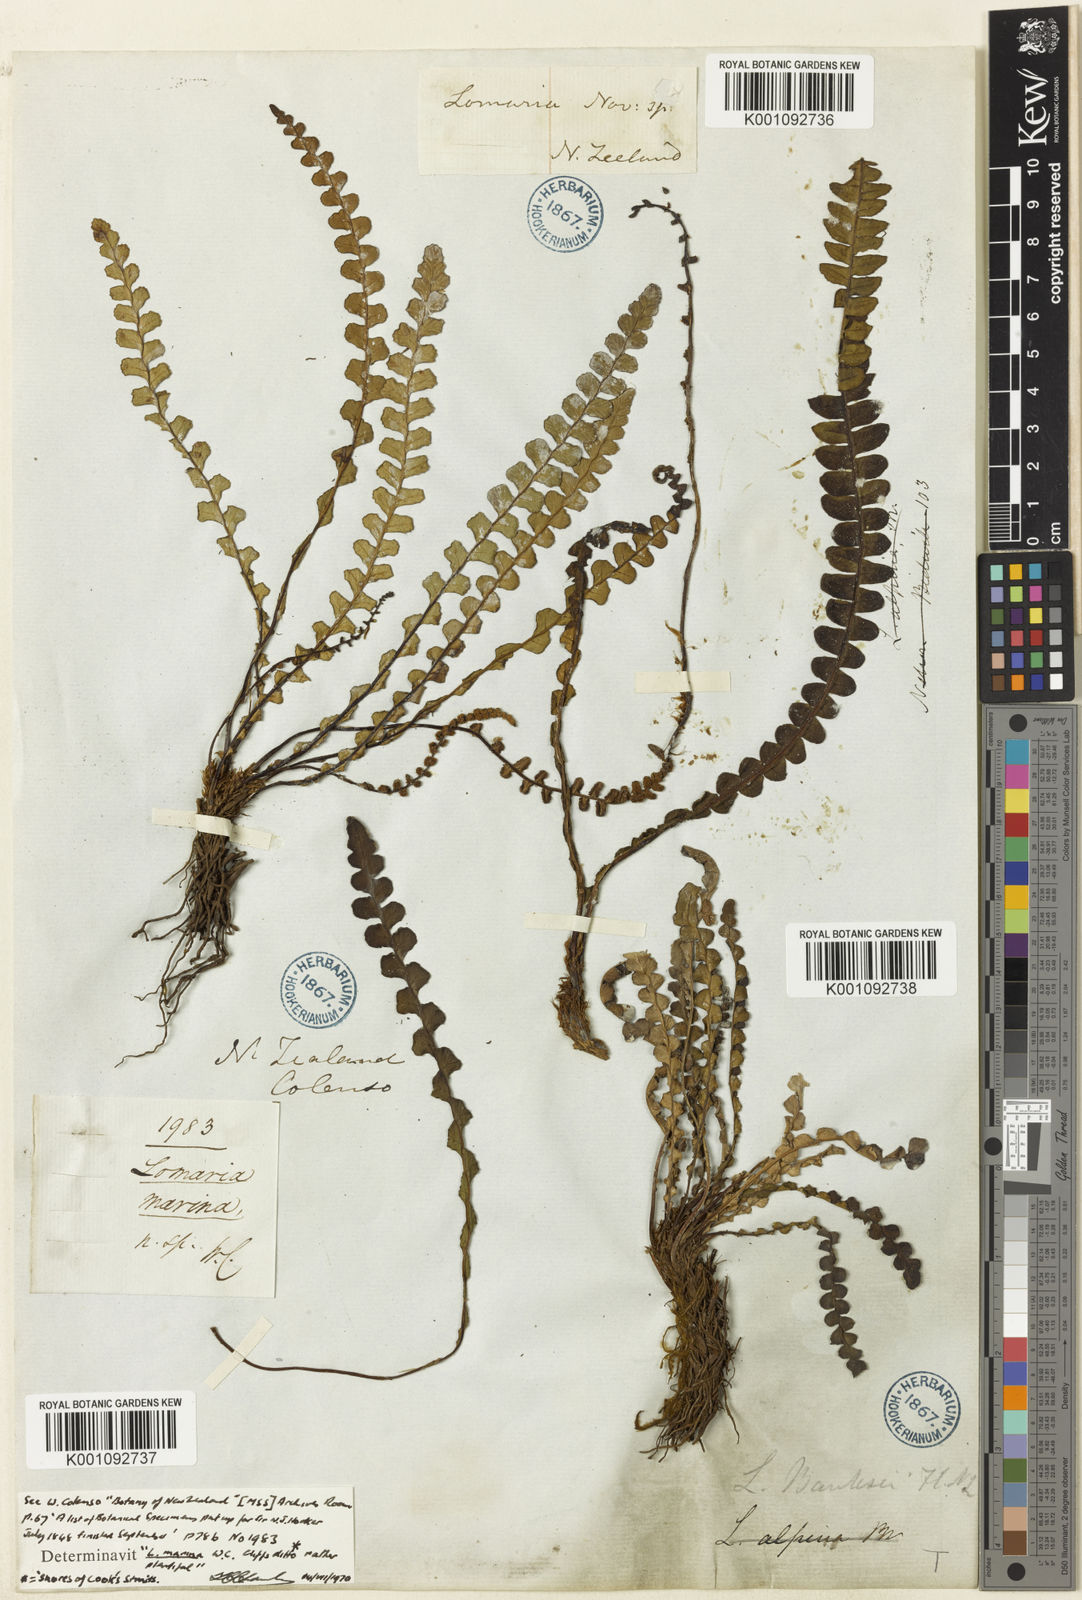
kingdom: Plantae
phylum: Tracheophyta
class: Polypodiopsida
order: Polypodiales
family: Blechnaceae
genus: Austroblechnum
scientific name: Austroblechnum leyboldtianum
